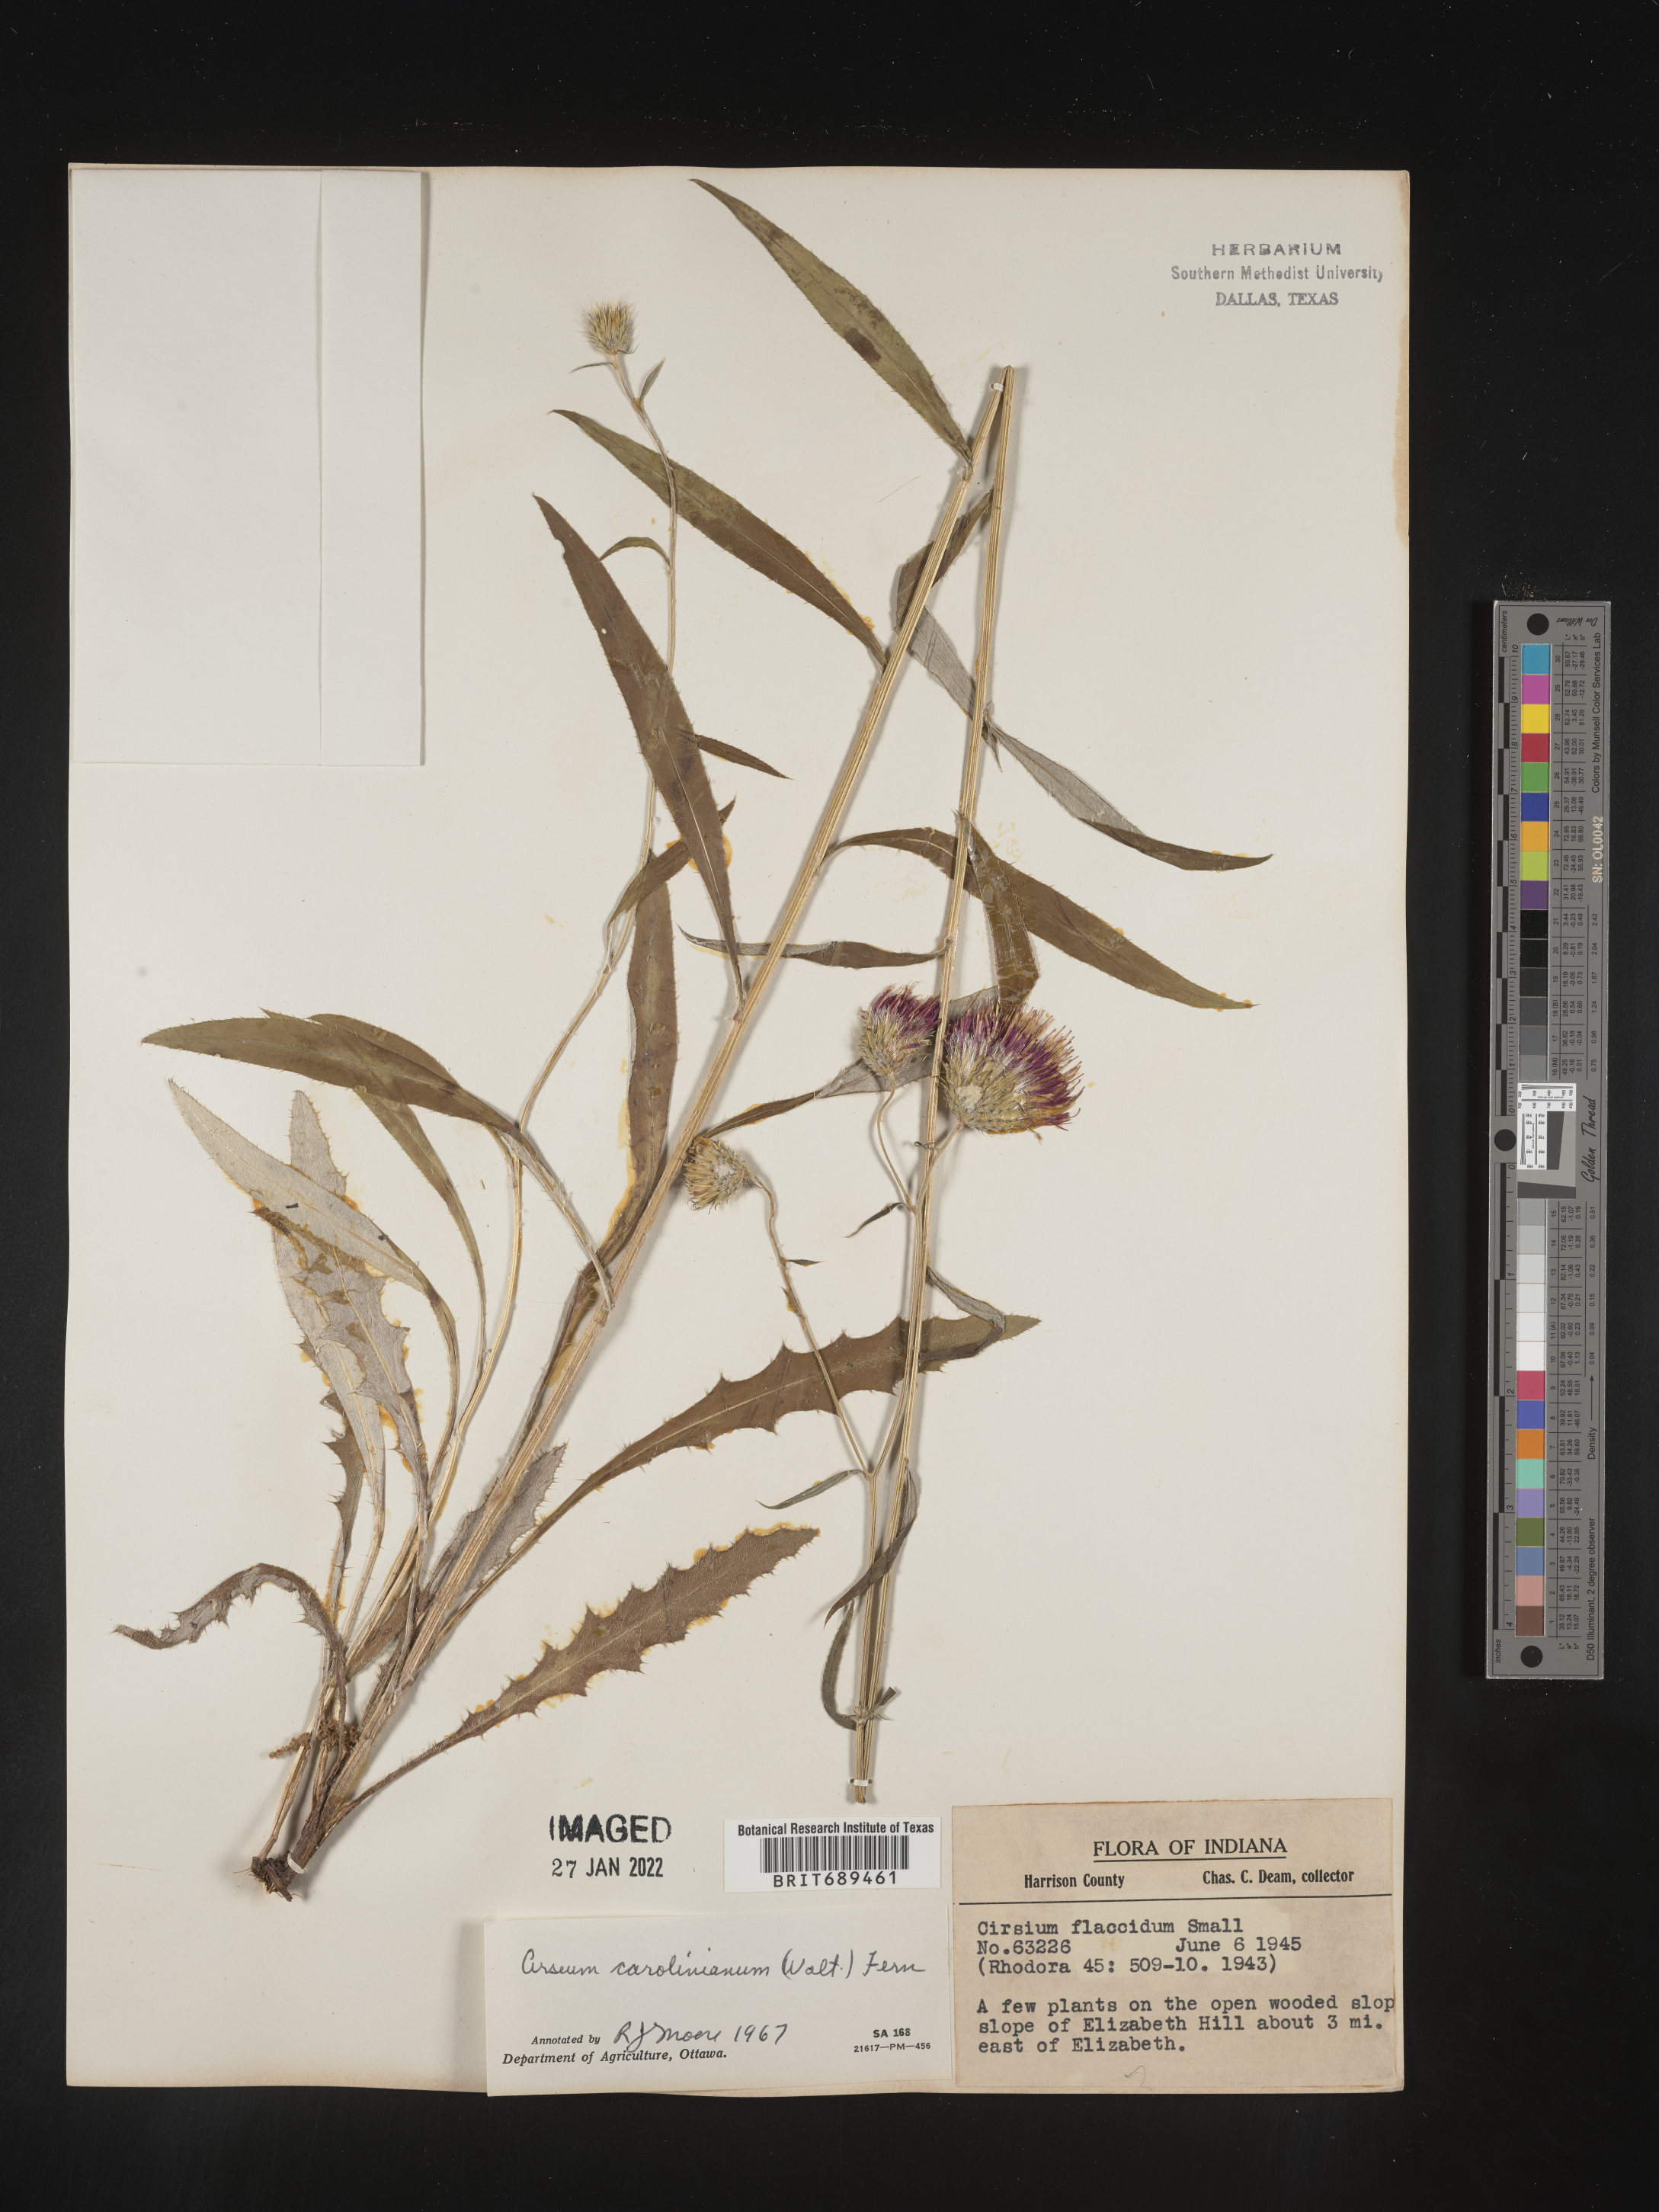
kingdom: Plantae
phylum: Tracheophyta
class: Magnoliopsida
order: Asterales
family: Asteraceae
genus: Cirsium
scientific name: Cirsium carolinianum
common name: Carolina thistle
